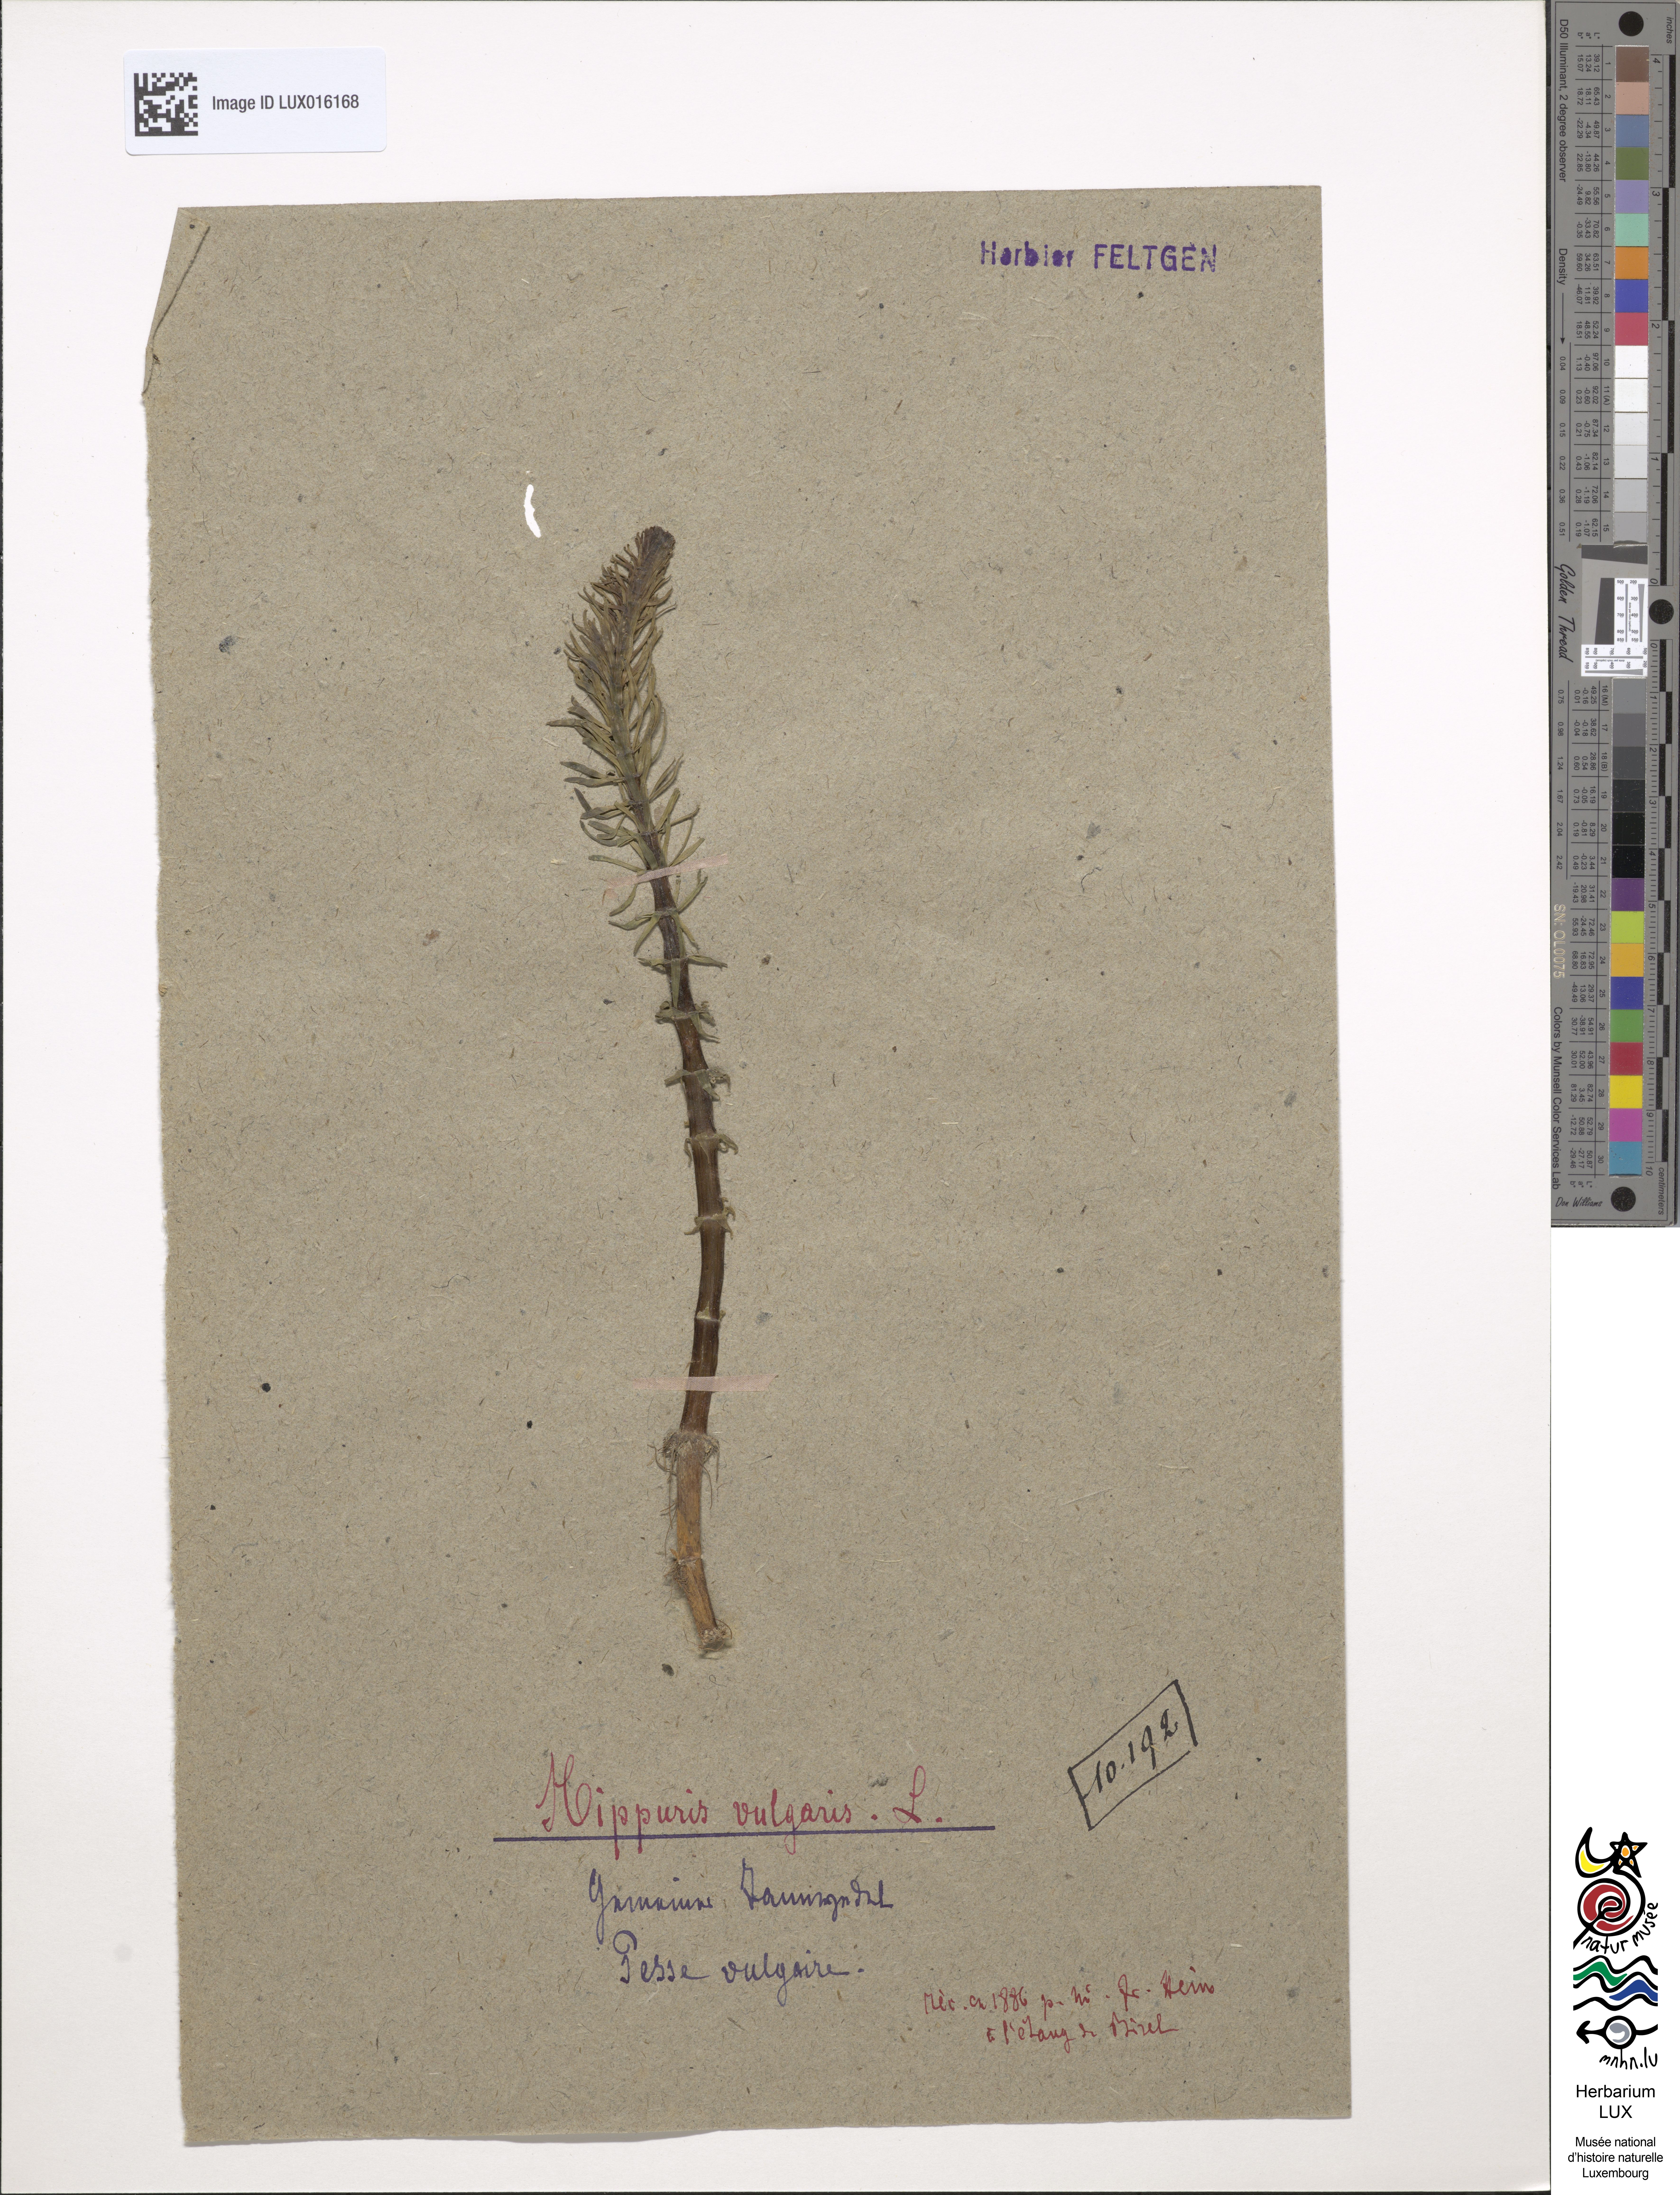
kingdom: Plantae
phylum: Tracheophyta
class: Magnoliopsida
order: Lamiales
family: Plantaginaceae
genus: Hippuris
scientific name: Hippuris vulgaris
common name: Mare's-tail
